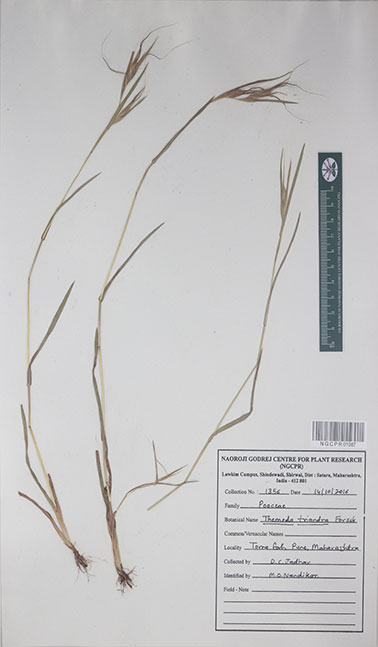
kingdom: Plantae
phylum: Tracheophyta
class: Liliopsida
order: Poales
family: Poaceae
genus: Themeda
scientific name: Themeda triandra
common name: Kangaroo grass
